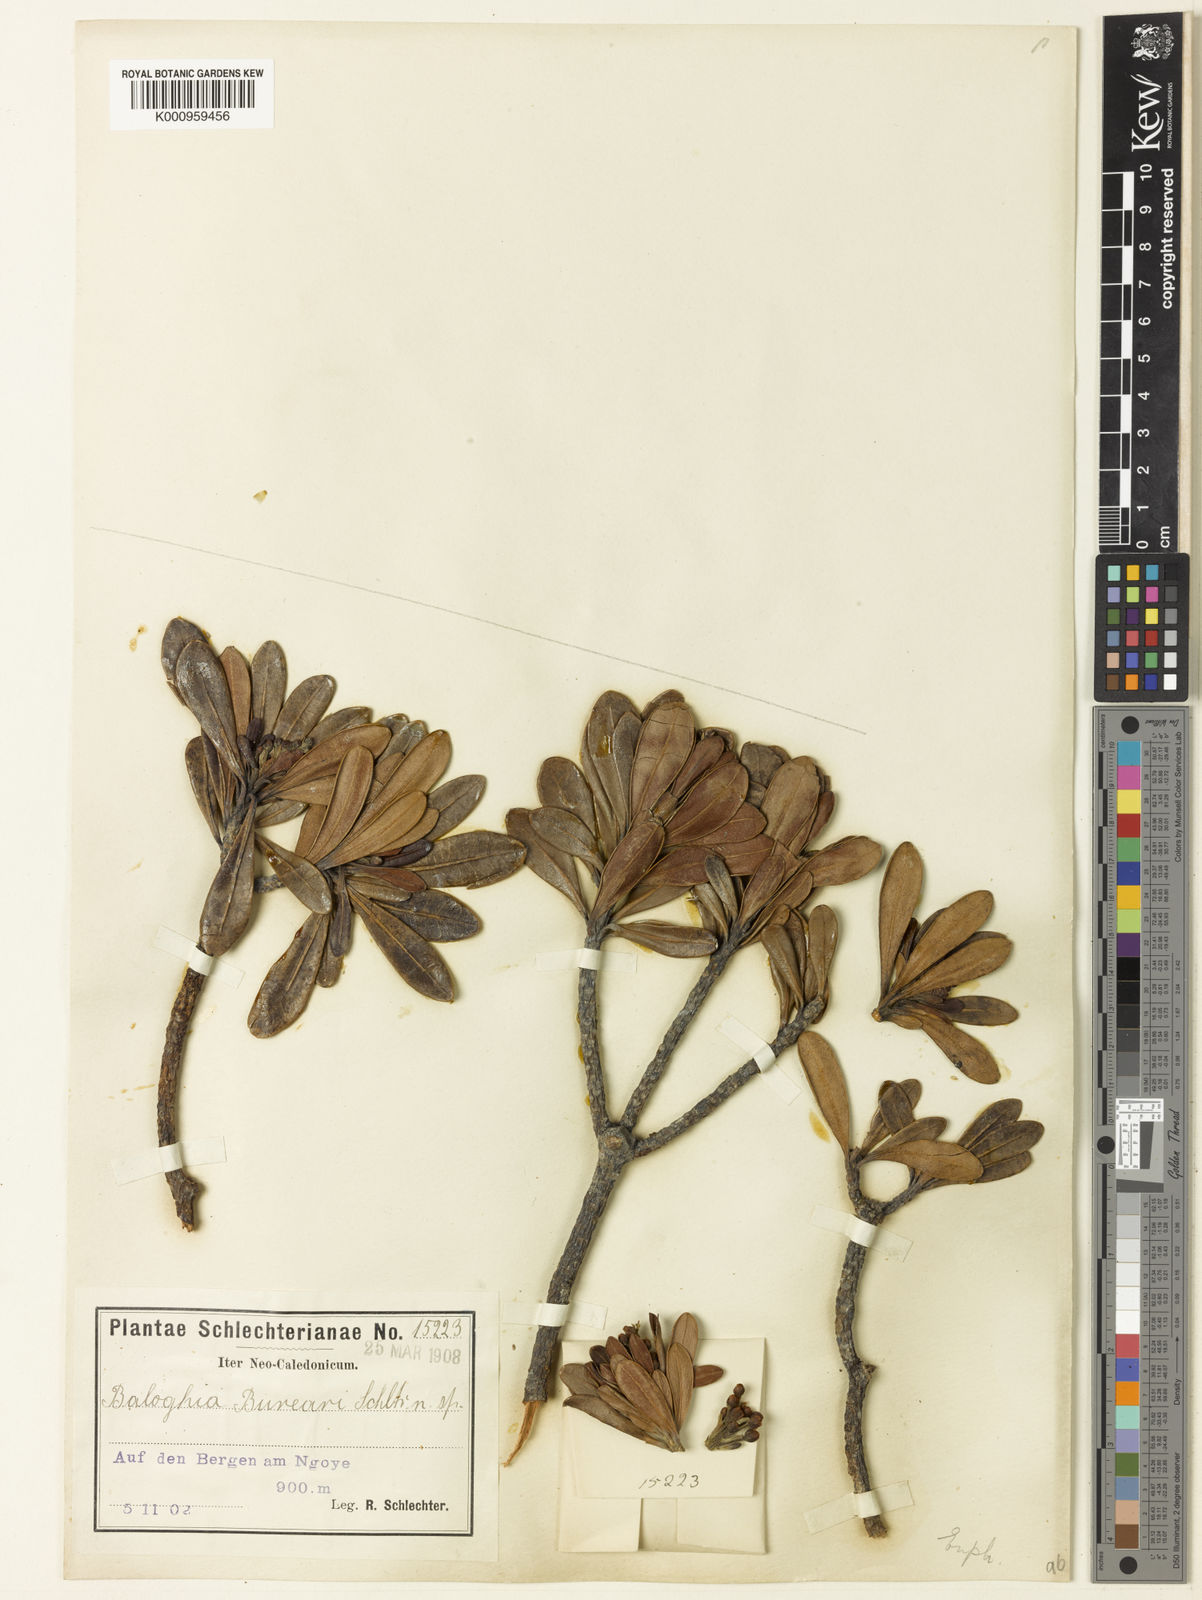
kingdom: Plantae
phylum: Tracheophyta
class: Magnoliopsida
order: Malpighiales
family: Euphorbiaceae
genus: Baloghia
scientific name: Baloghia bureavii
